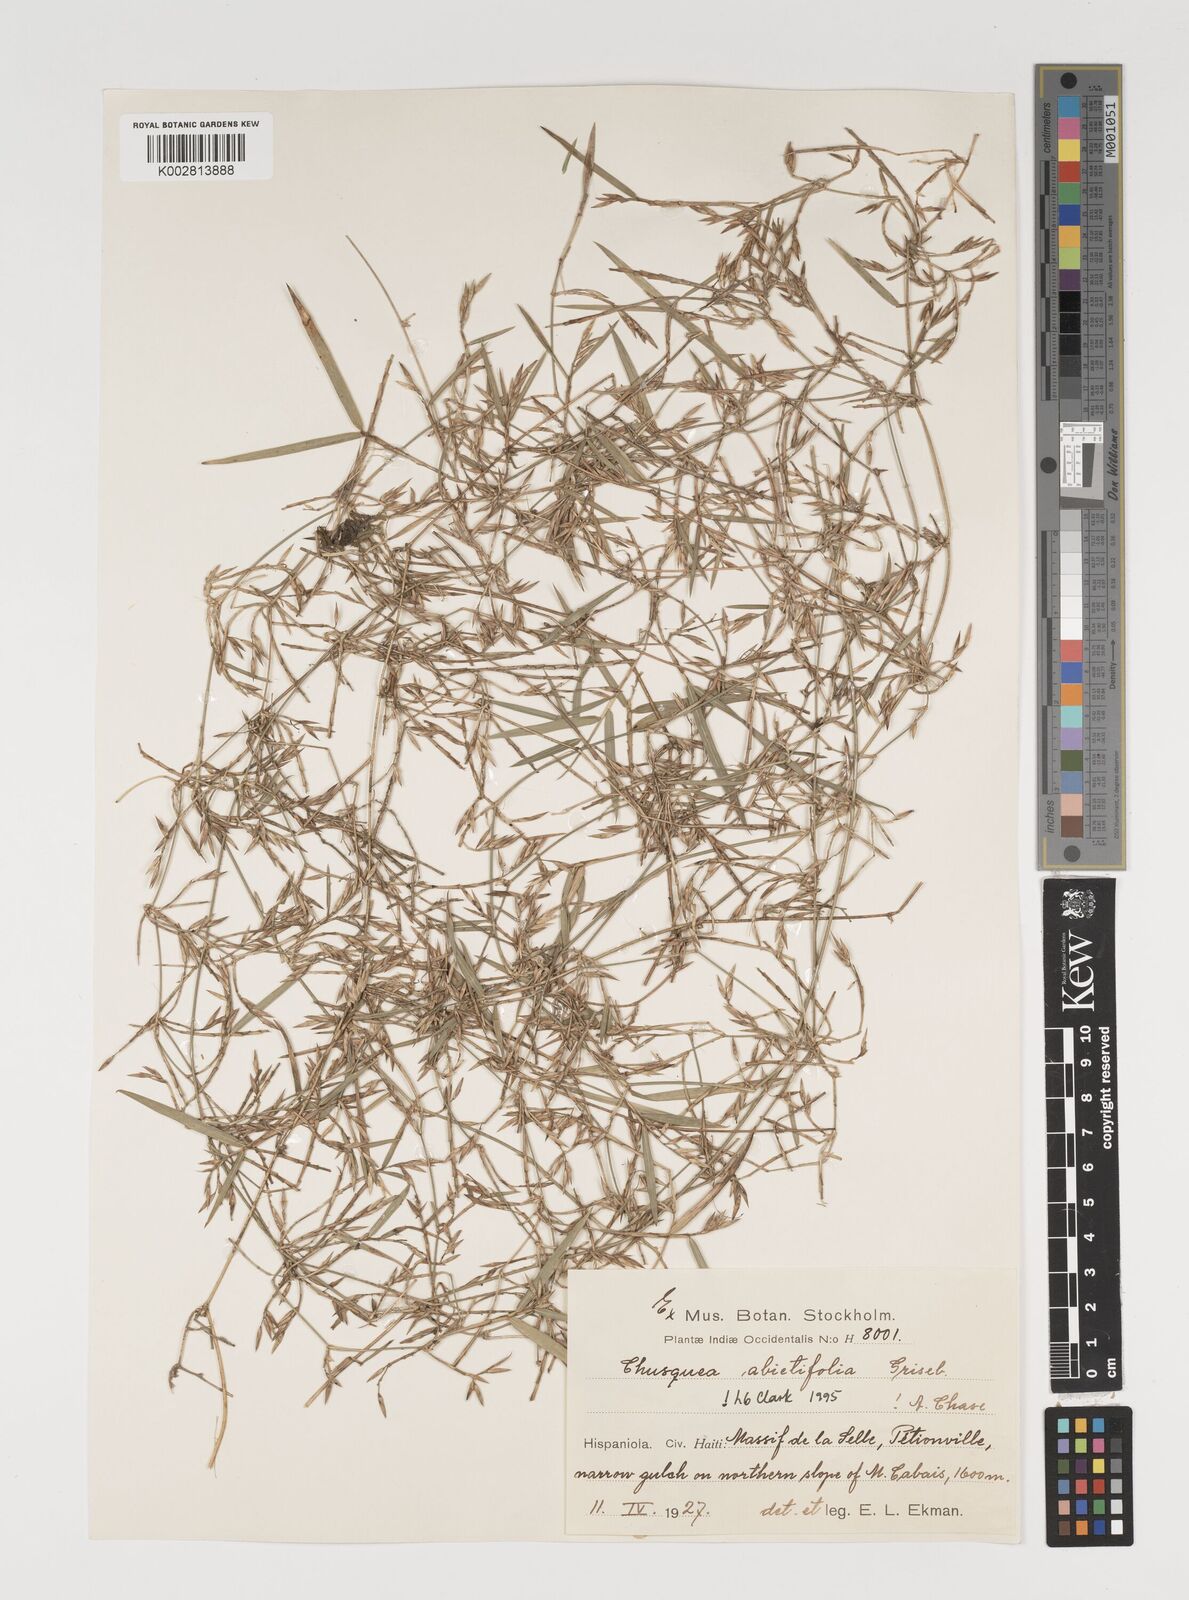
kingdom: Plantae
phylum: Tracheophyta
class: Liliopsida
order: Poales
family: Poaceae
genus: Chusquea
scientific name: Chusquea abietifolia
